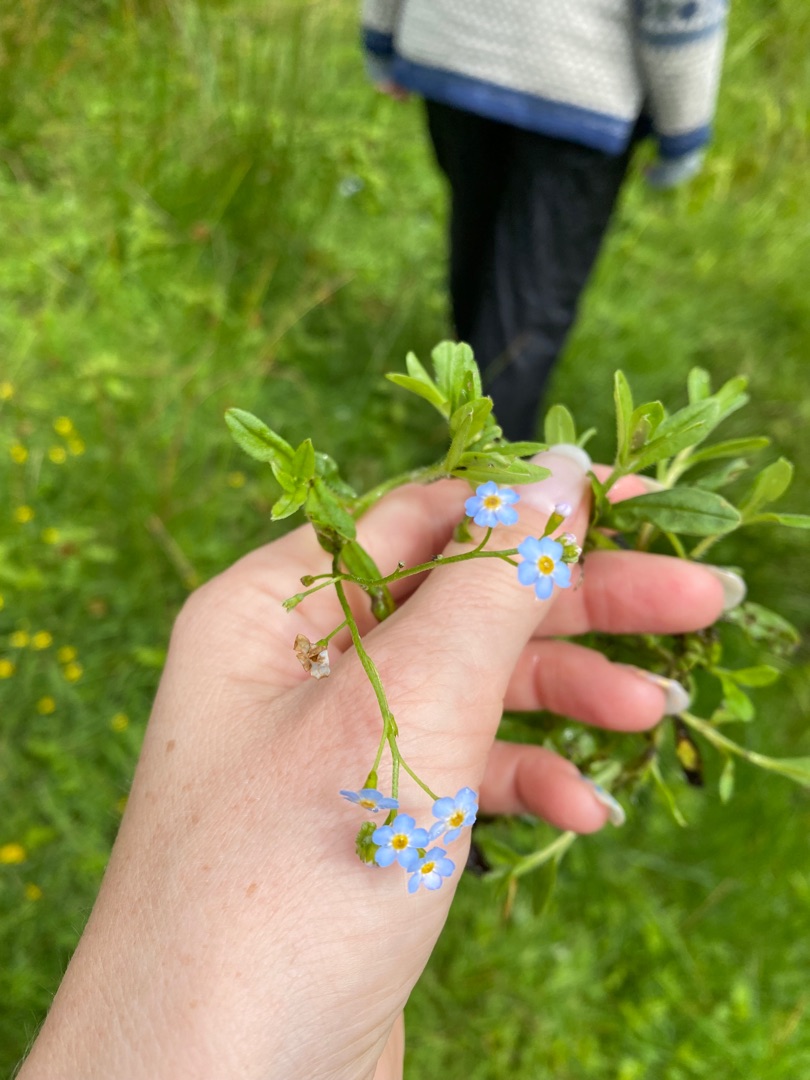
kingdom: Plantae
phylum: Tracheophyta
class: Magnoliopsida
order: Boraginales
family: Boraginaceae
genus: Myosotis
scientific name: Myosotis scorpioides
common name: Eng-forglemmigej
